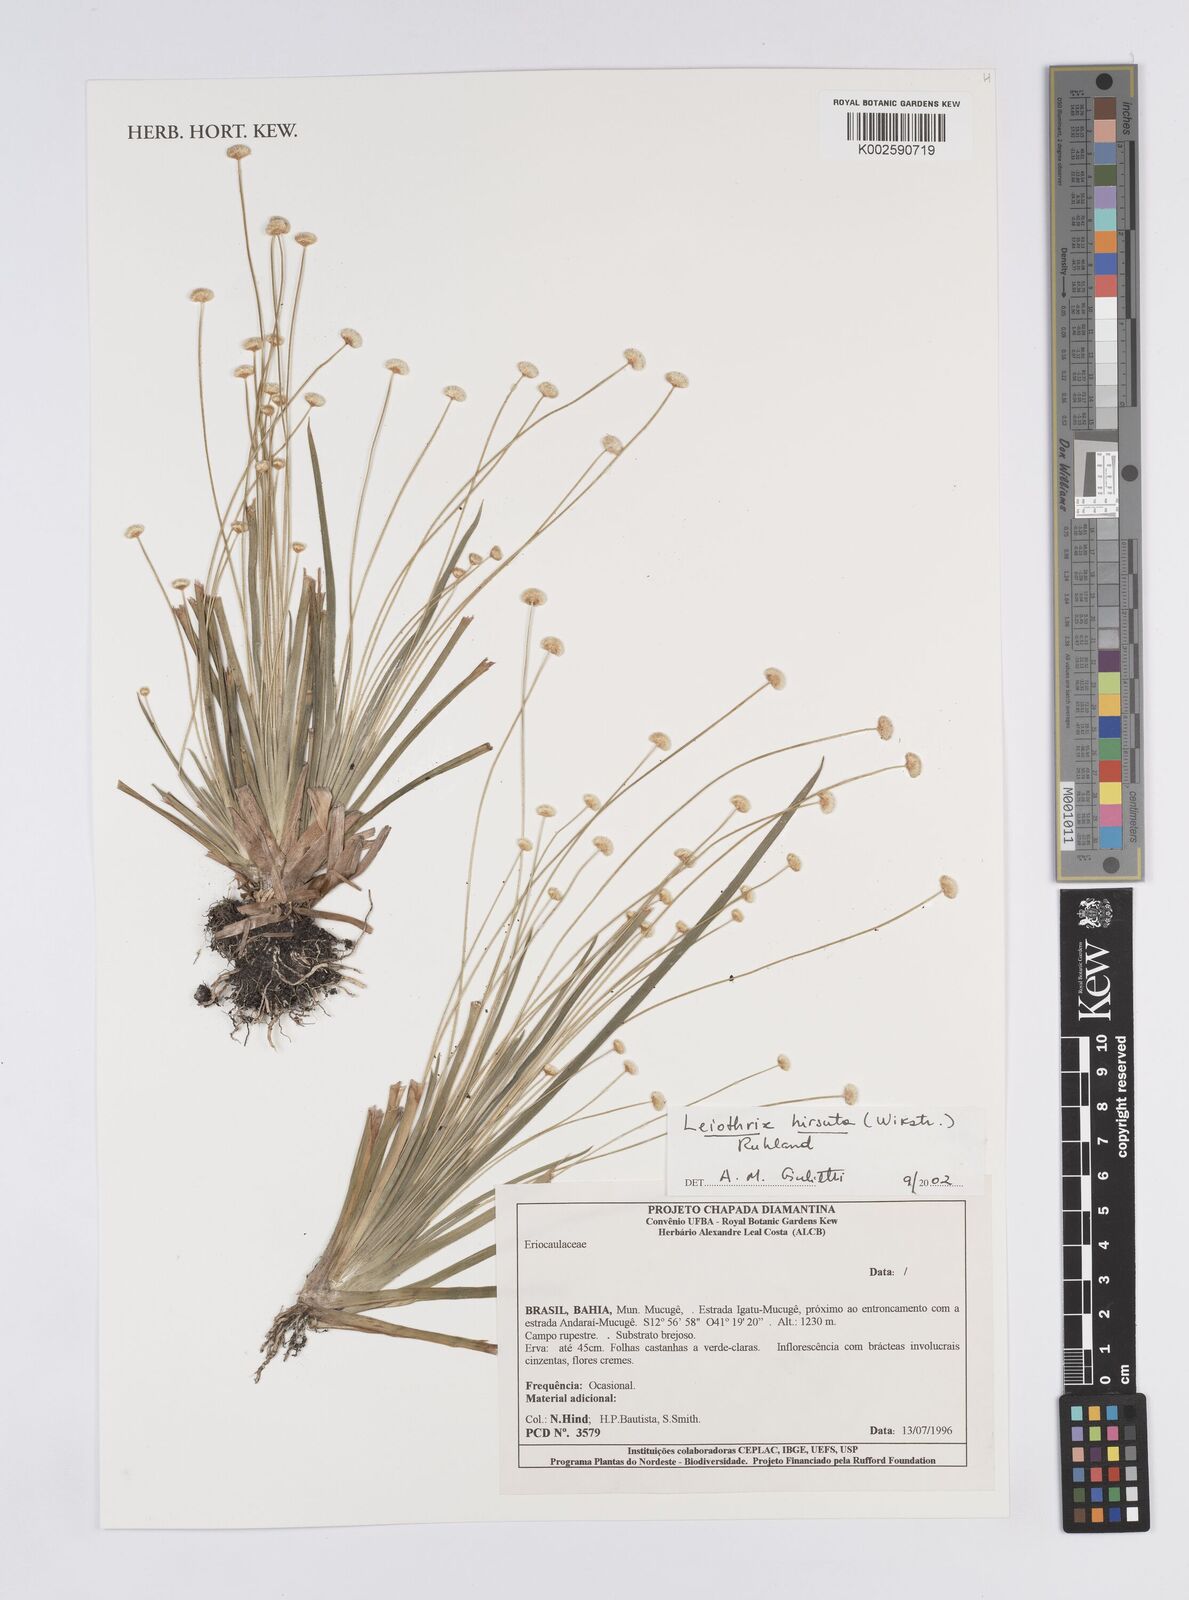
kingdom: Plantae
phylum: Tracheophyta
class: Liliopsida
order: Poales
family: Eriocaulaceae
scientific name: Eriocaulaceae
